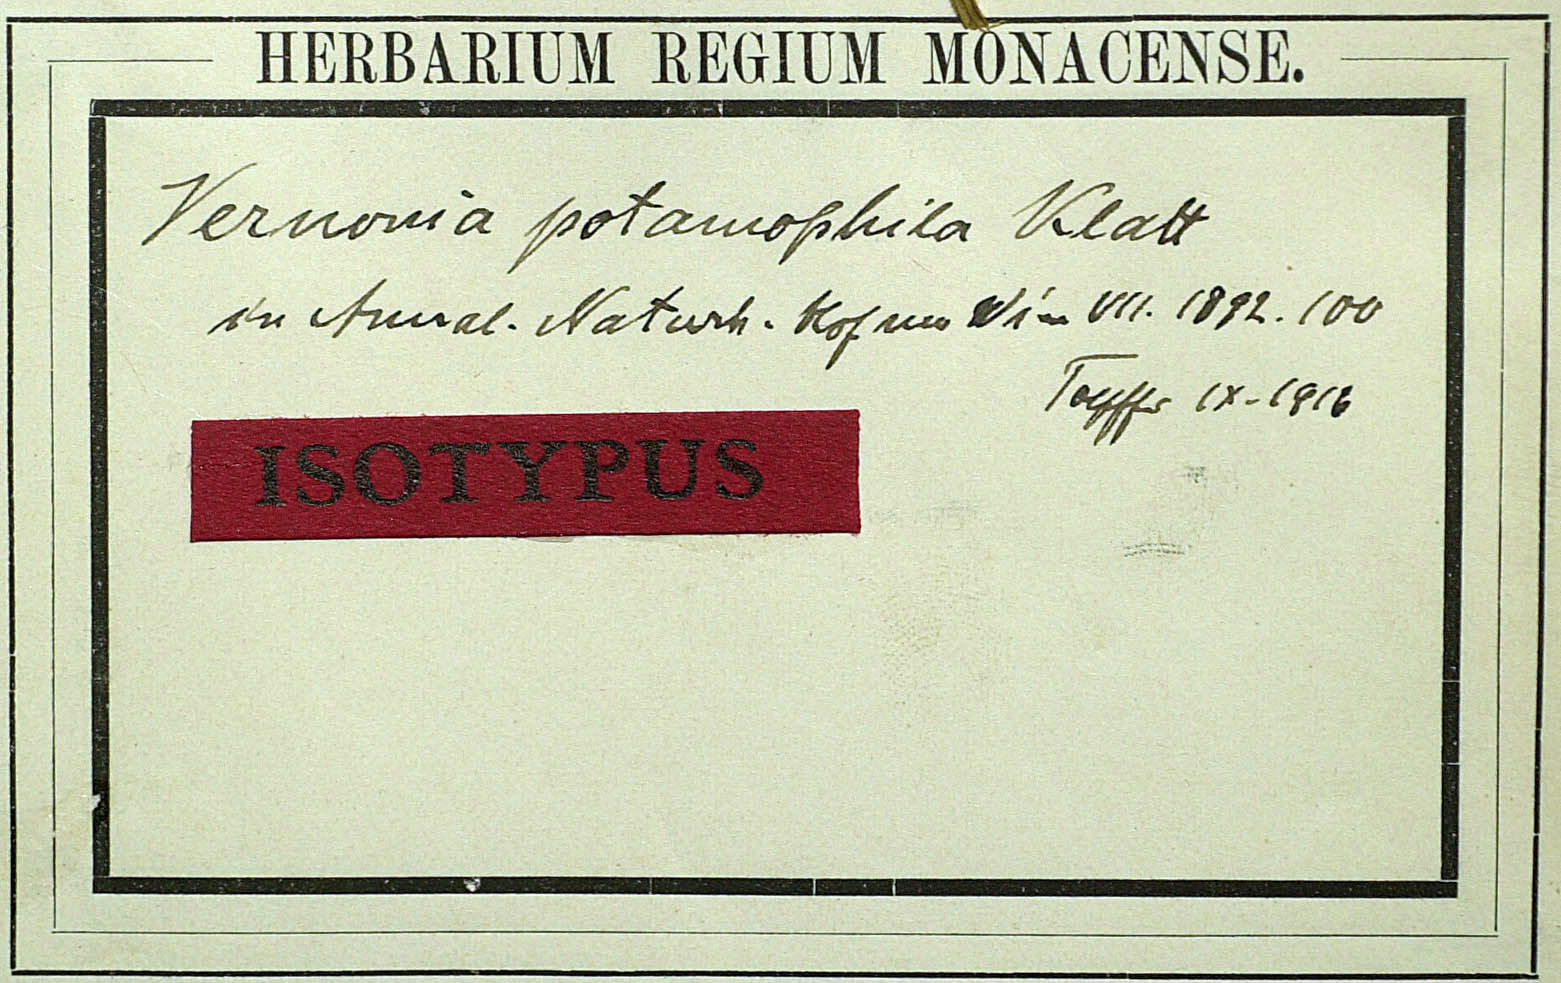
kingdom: Plantae
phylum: Tracheophyta
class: Magnoliopsida
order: Asterales
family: Asteraceae
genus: Vernonia
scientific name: Vernonia potamophila
